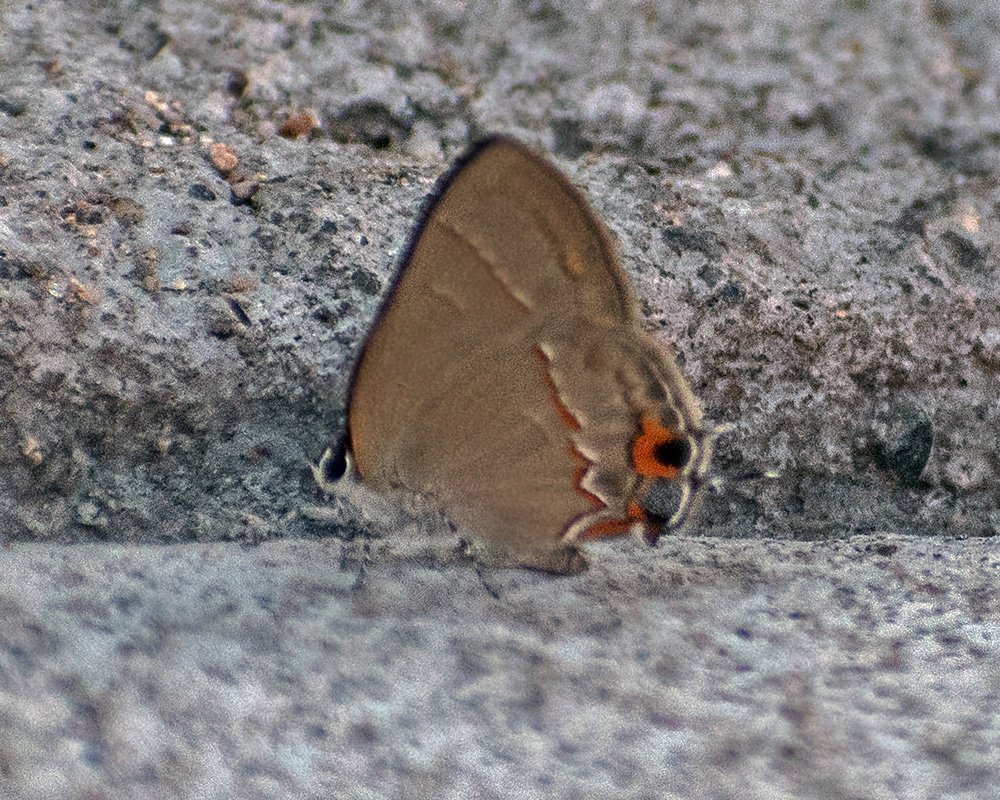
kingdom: Animalia
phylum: Arthropoda
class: Insecta
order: Lepidoptera
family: Lycaenidae
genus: Electrostrymon
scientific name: Electrostrymon endymion
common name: Ruddy Hairstreak
